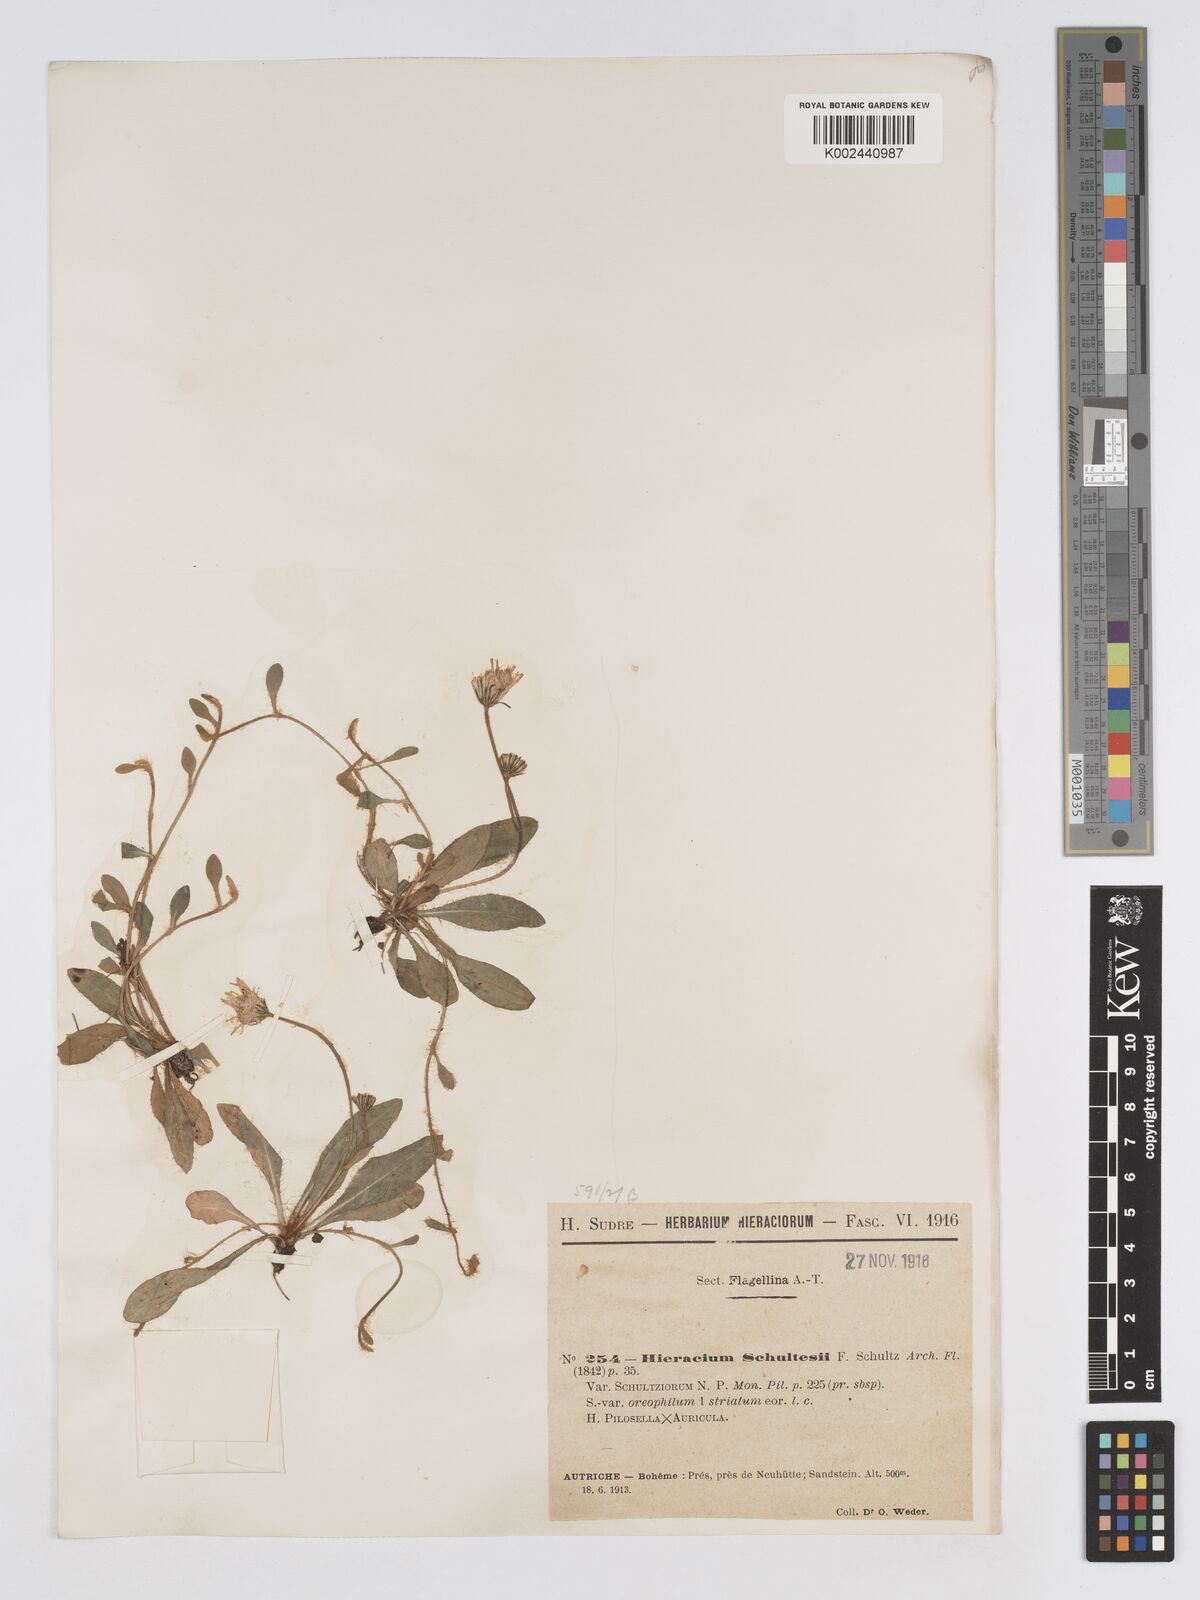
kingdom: Plantae
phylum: Tracheophyta
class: Magnoliopsida
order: Asterales
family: Asteraceae
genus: Pilosella
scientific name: Pilosella schultesii
